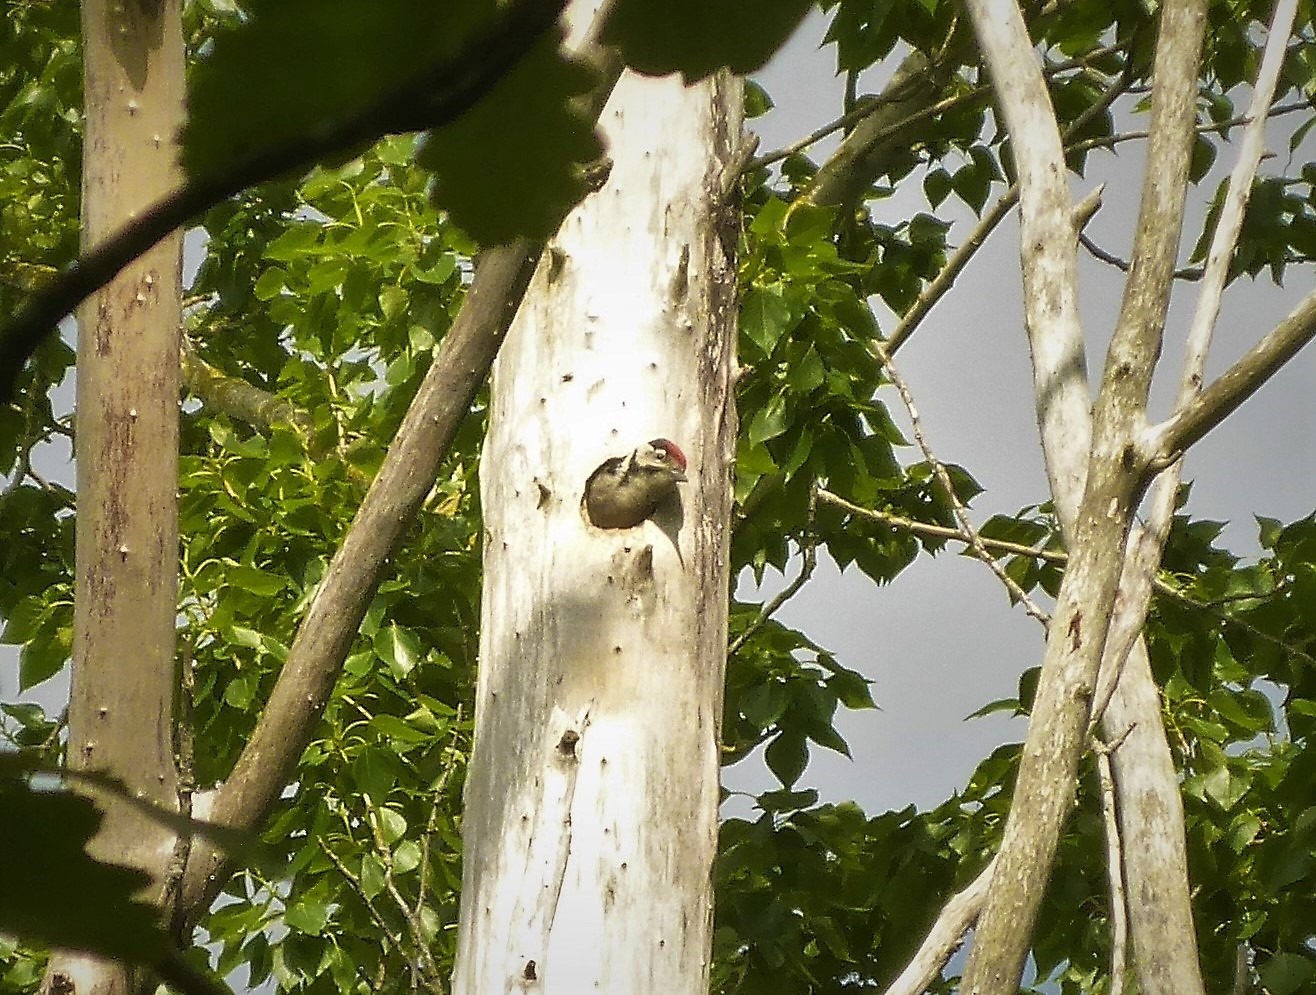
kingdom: Animalia
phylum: Chordata
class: Aves
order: Piciformes
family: Picidae
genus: Dendrocopos
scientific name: Dendrocopos major
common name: Stor flagspætte
